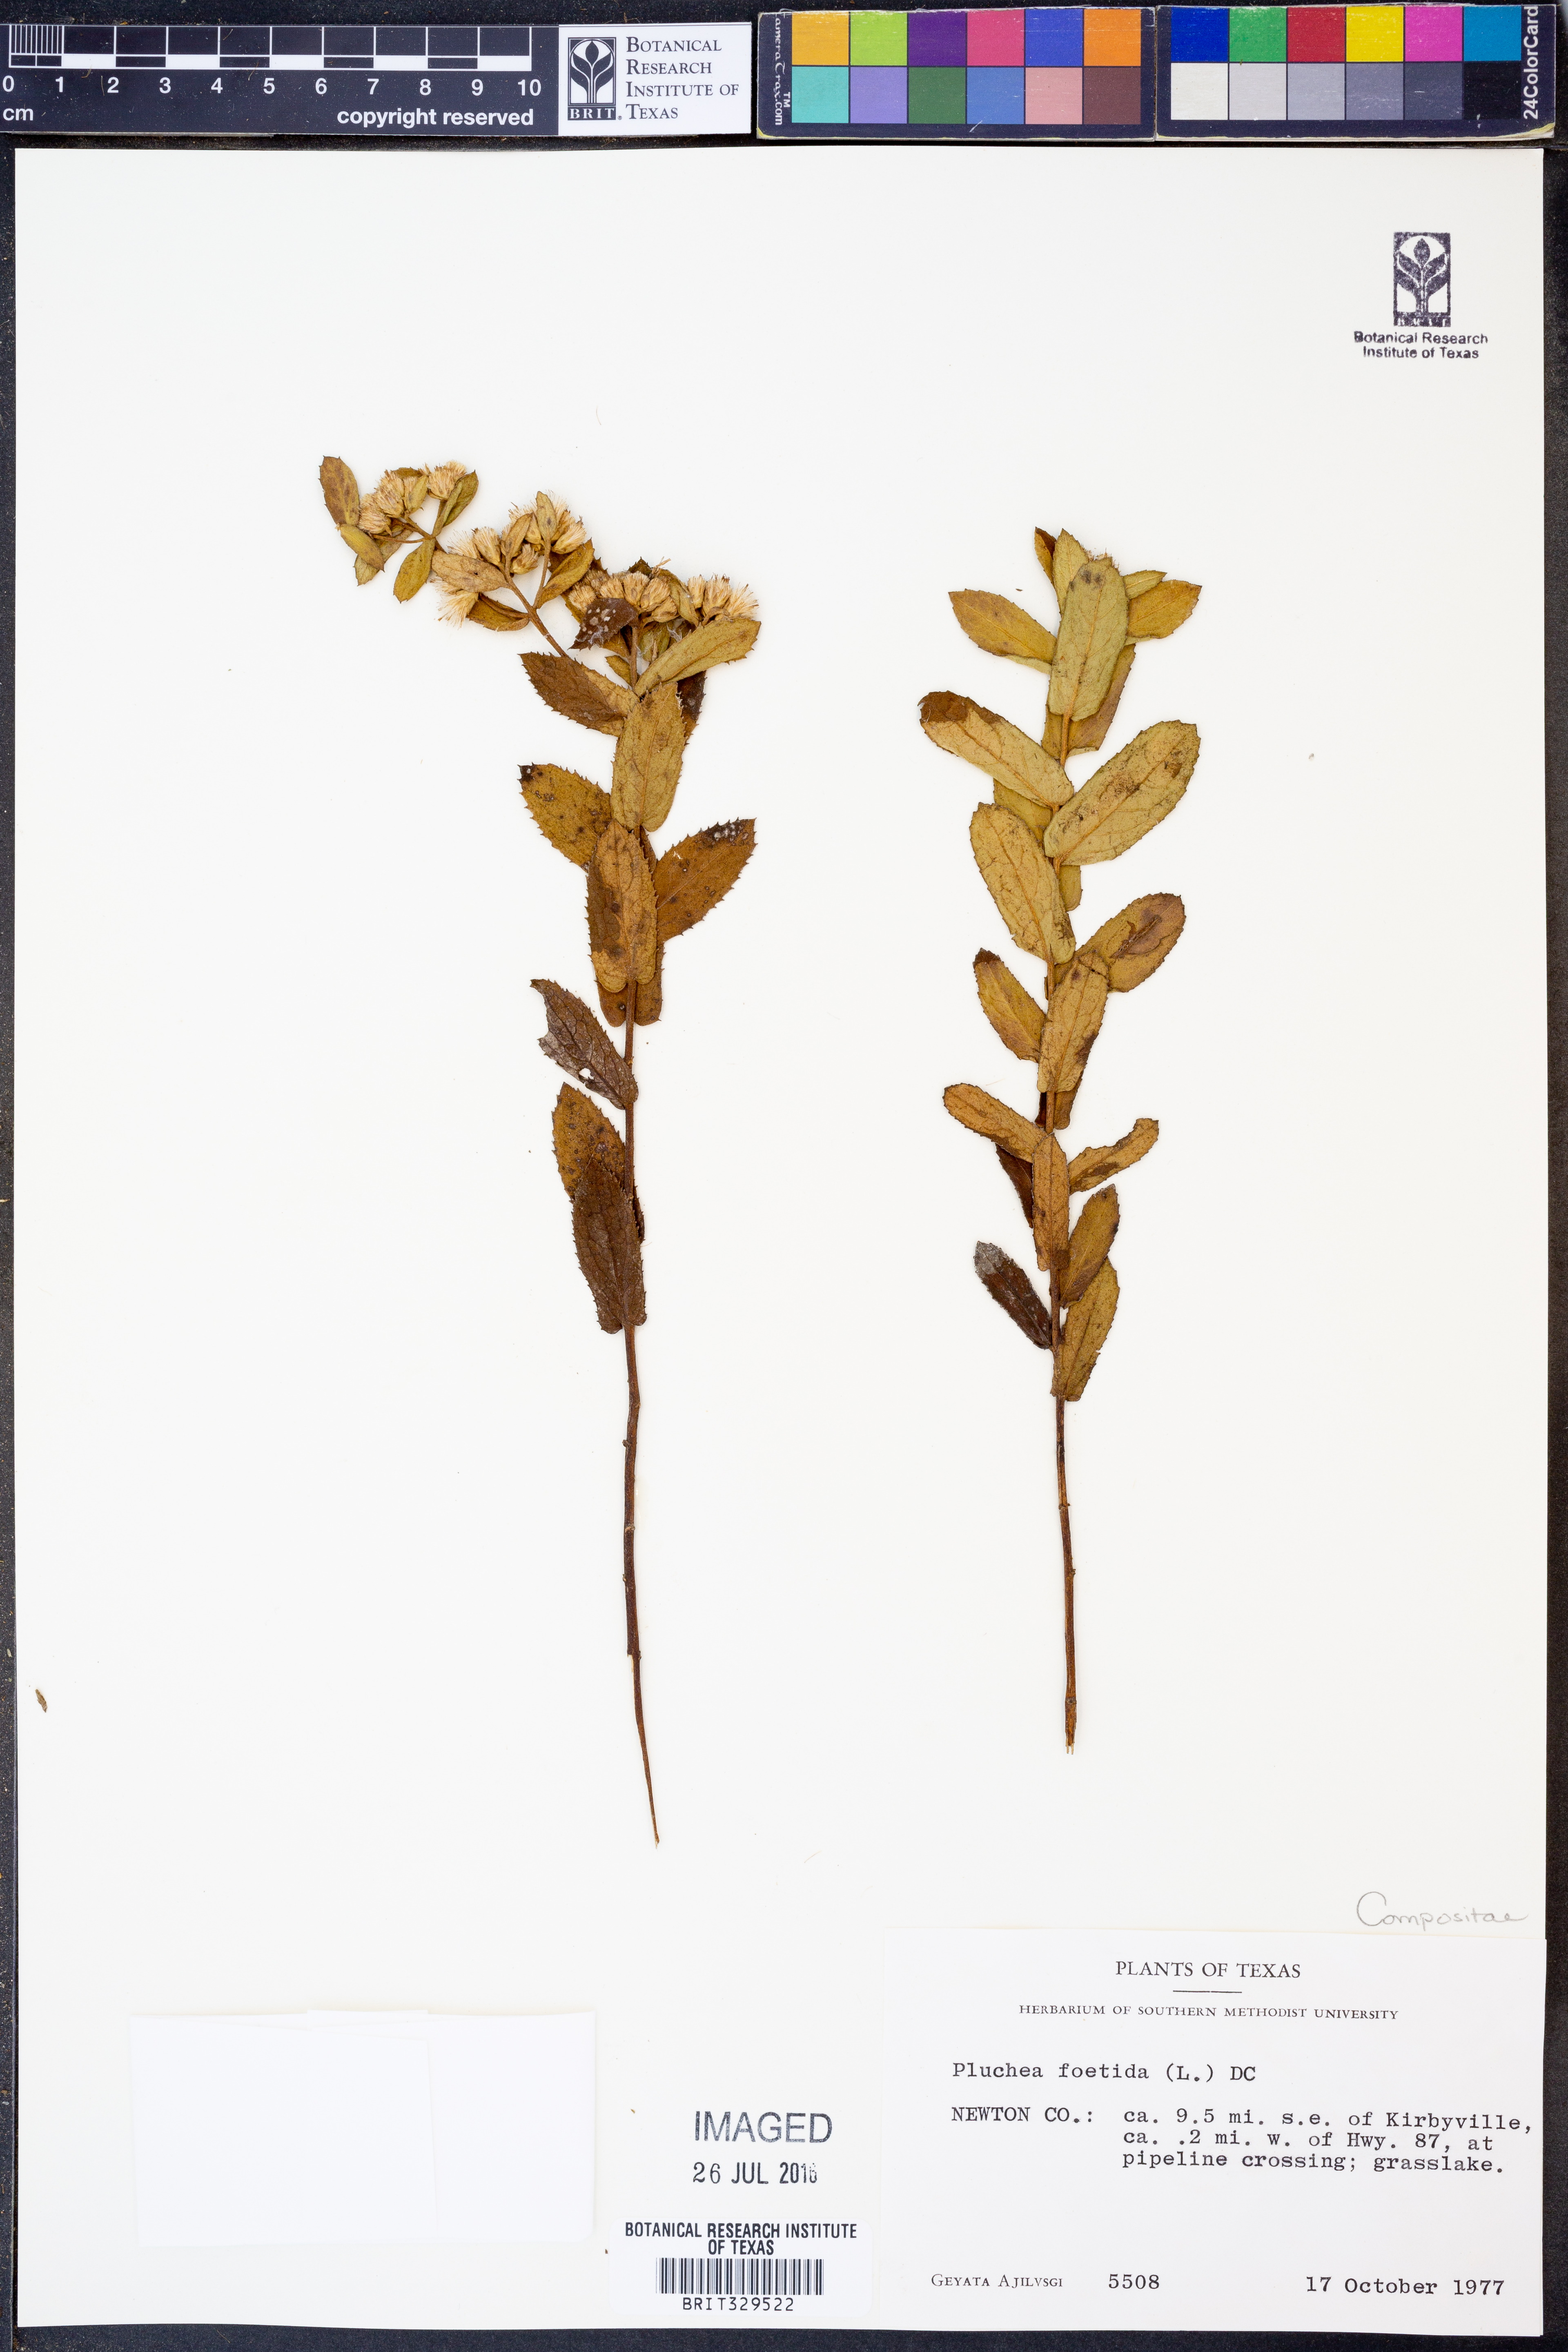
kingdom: Plantae
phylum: Tracheophyta
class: Magnoliopsida
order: Asterales
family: Asteraceae
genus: Pluchea
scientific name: Pluchea foetida
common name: Stinking camphorweed
